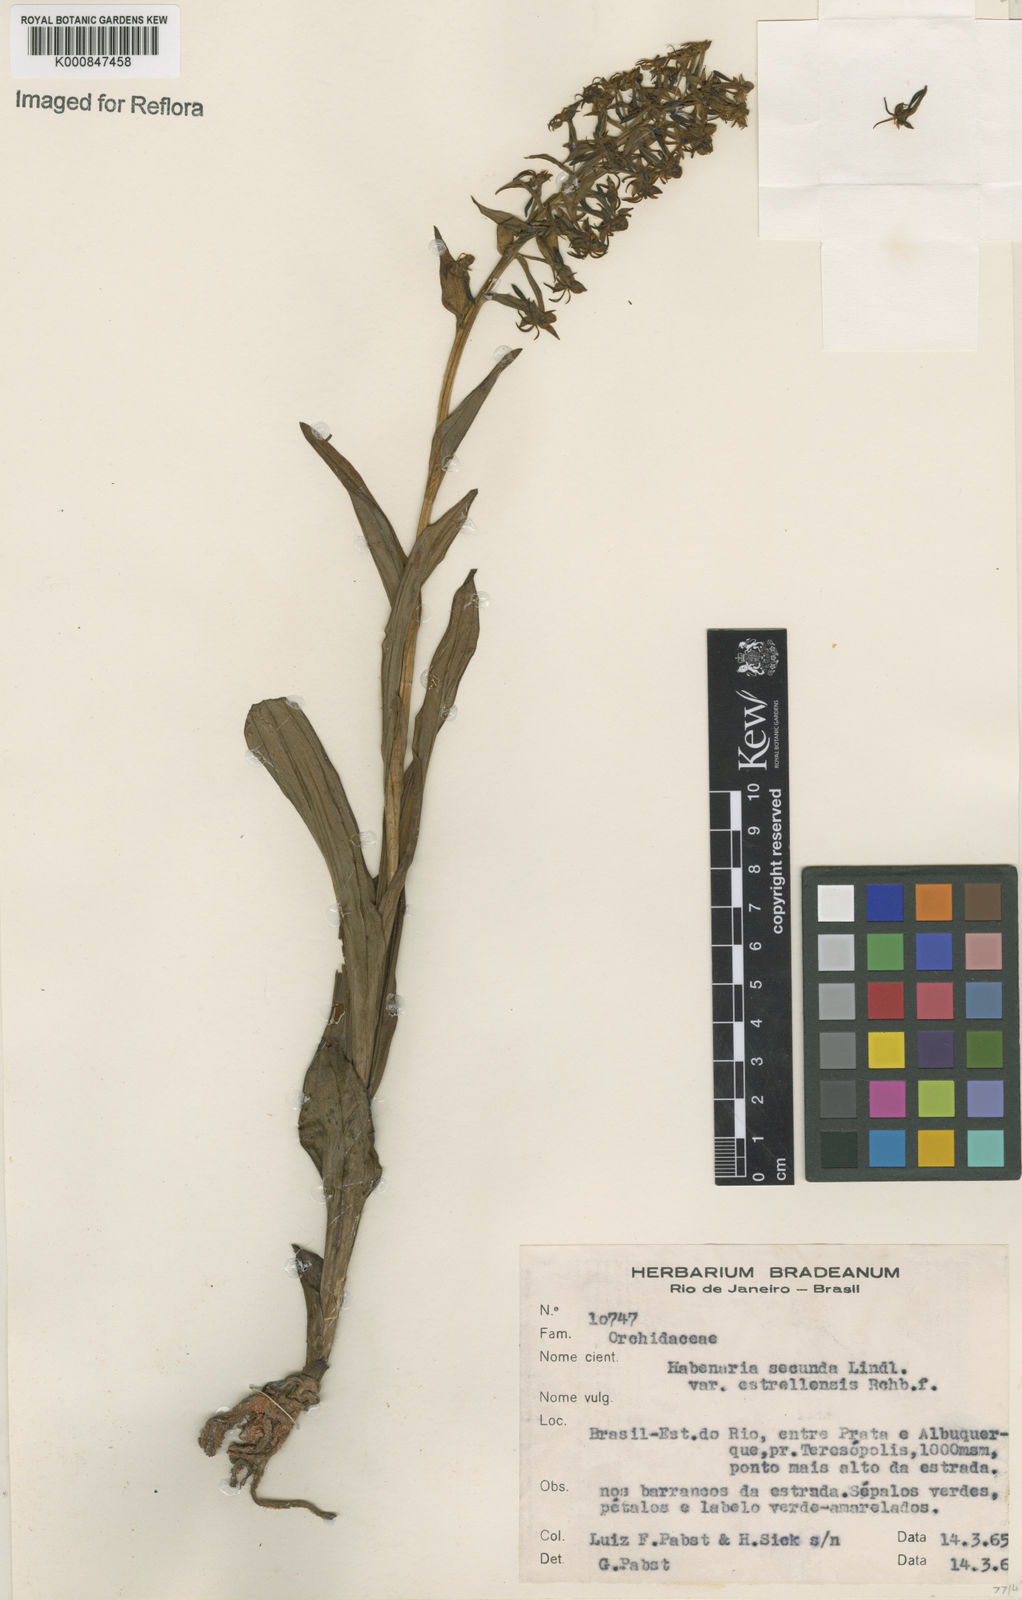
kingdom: Plantae
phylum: Tracheophyta
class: Liliopsida
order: Asparagales
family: Orchidaceae
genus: Habenaria
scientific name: Habenaria secunda
